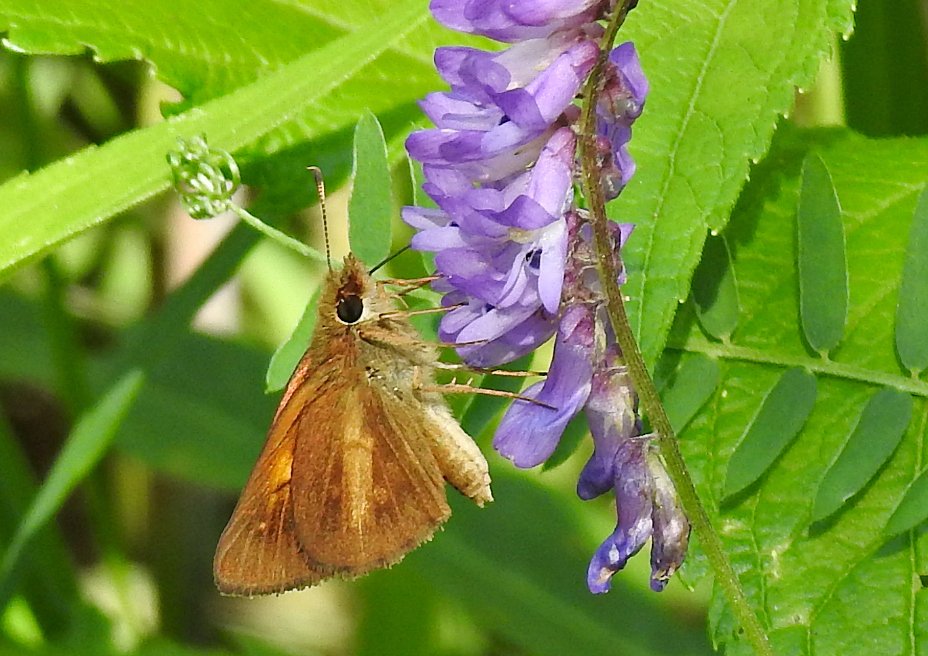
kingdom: Animalia
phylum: Arthropoda
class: Insecta
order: Lepidoptera
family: Hesperiidae
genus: Poanes
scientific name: Poanes viator
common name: Broad-winged Skipper
